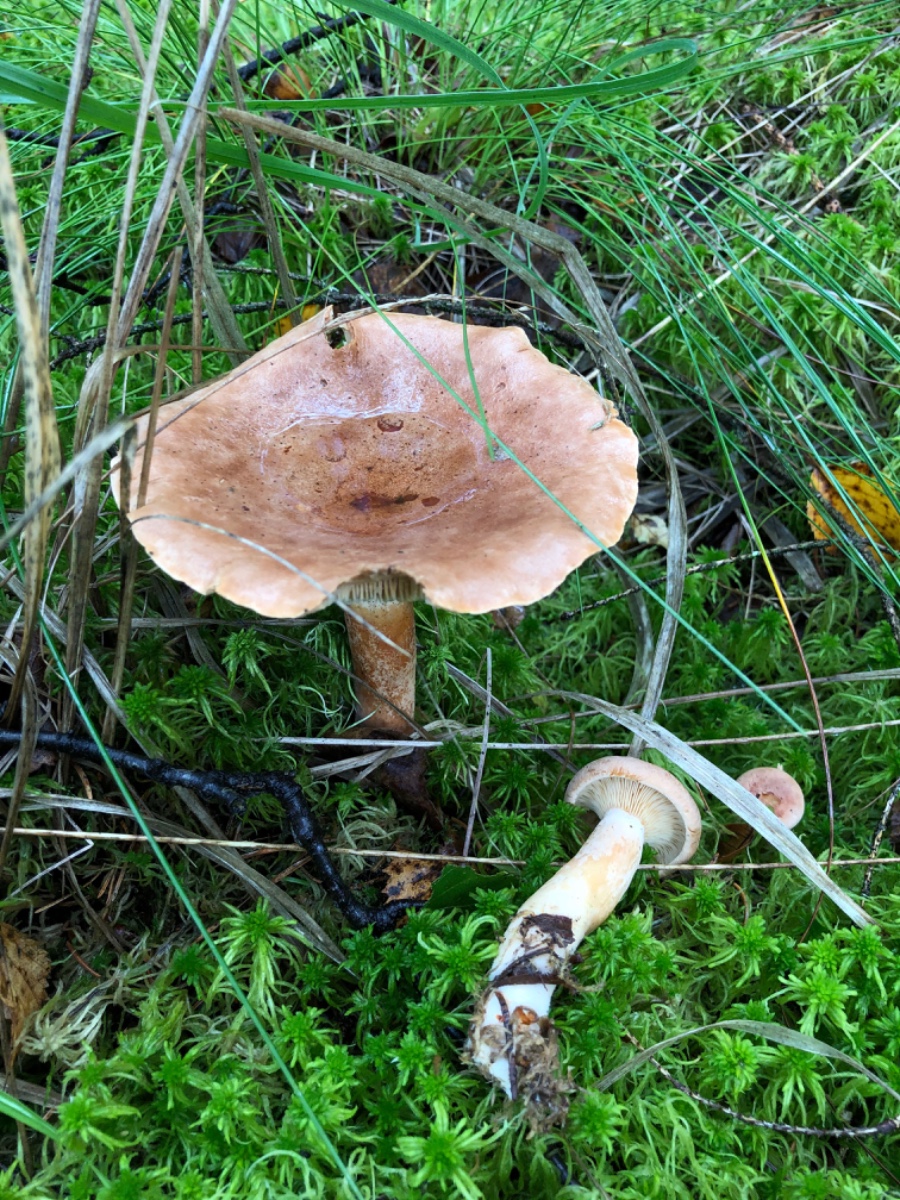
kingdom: Fungi
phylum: Basidiomycota
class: Agaricomycetes
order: Russulales
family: Russulaceae
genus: Lactarius
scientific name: Lactarius helvus
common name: mose-mælkehat
